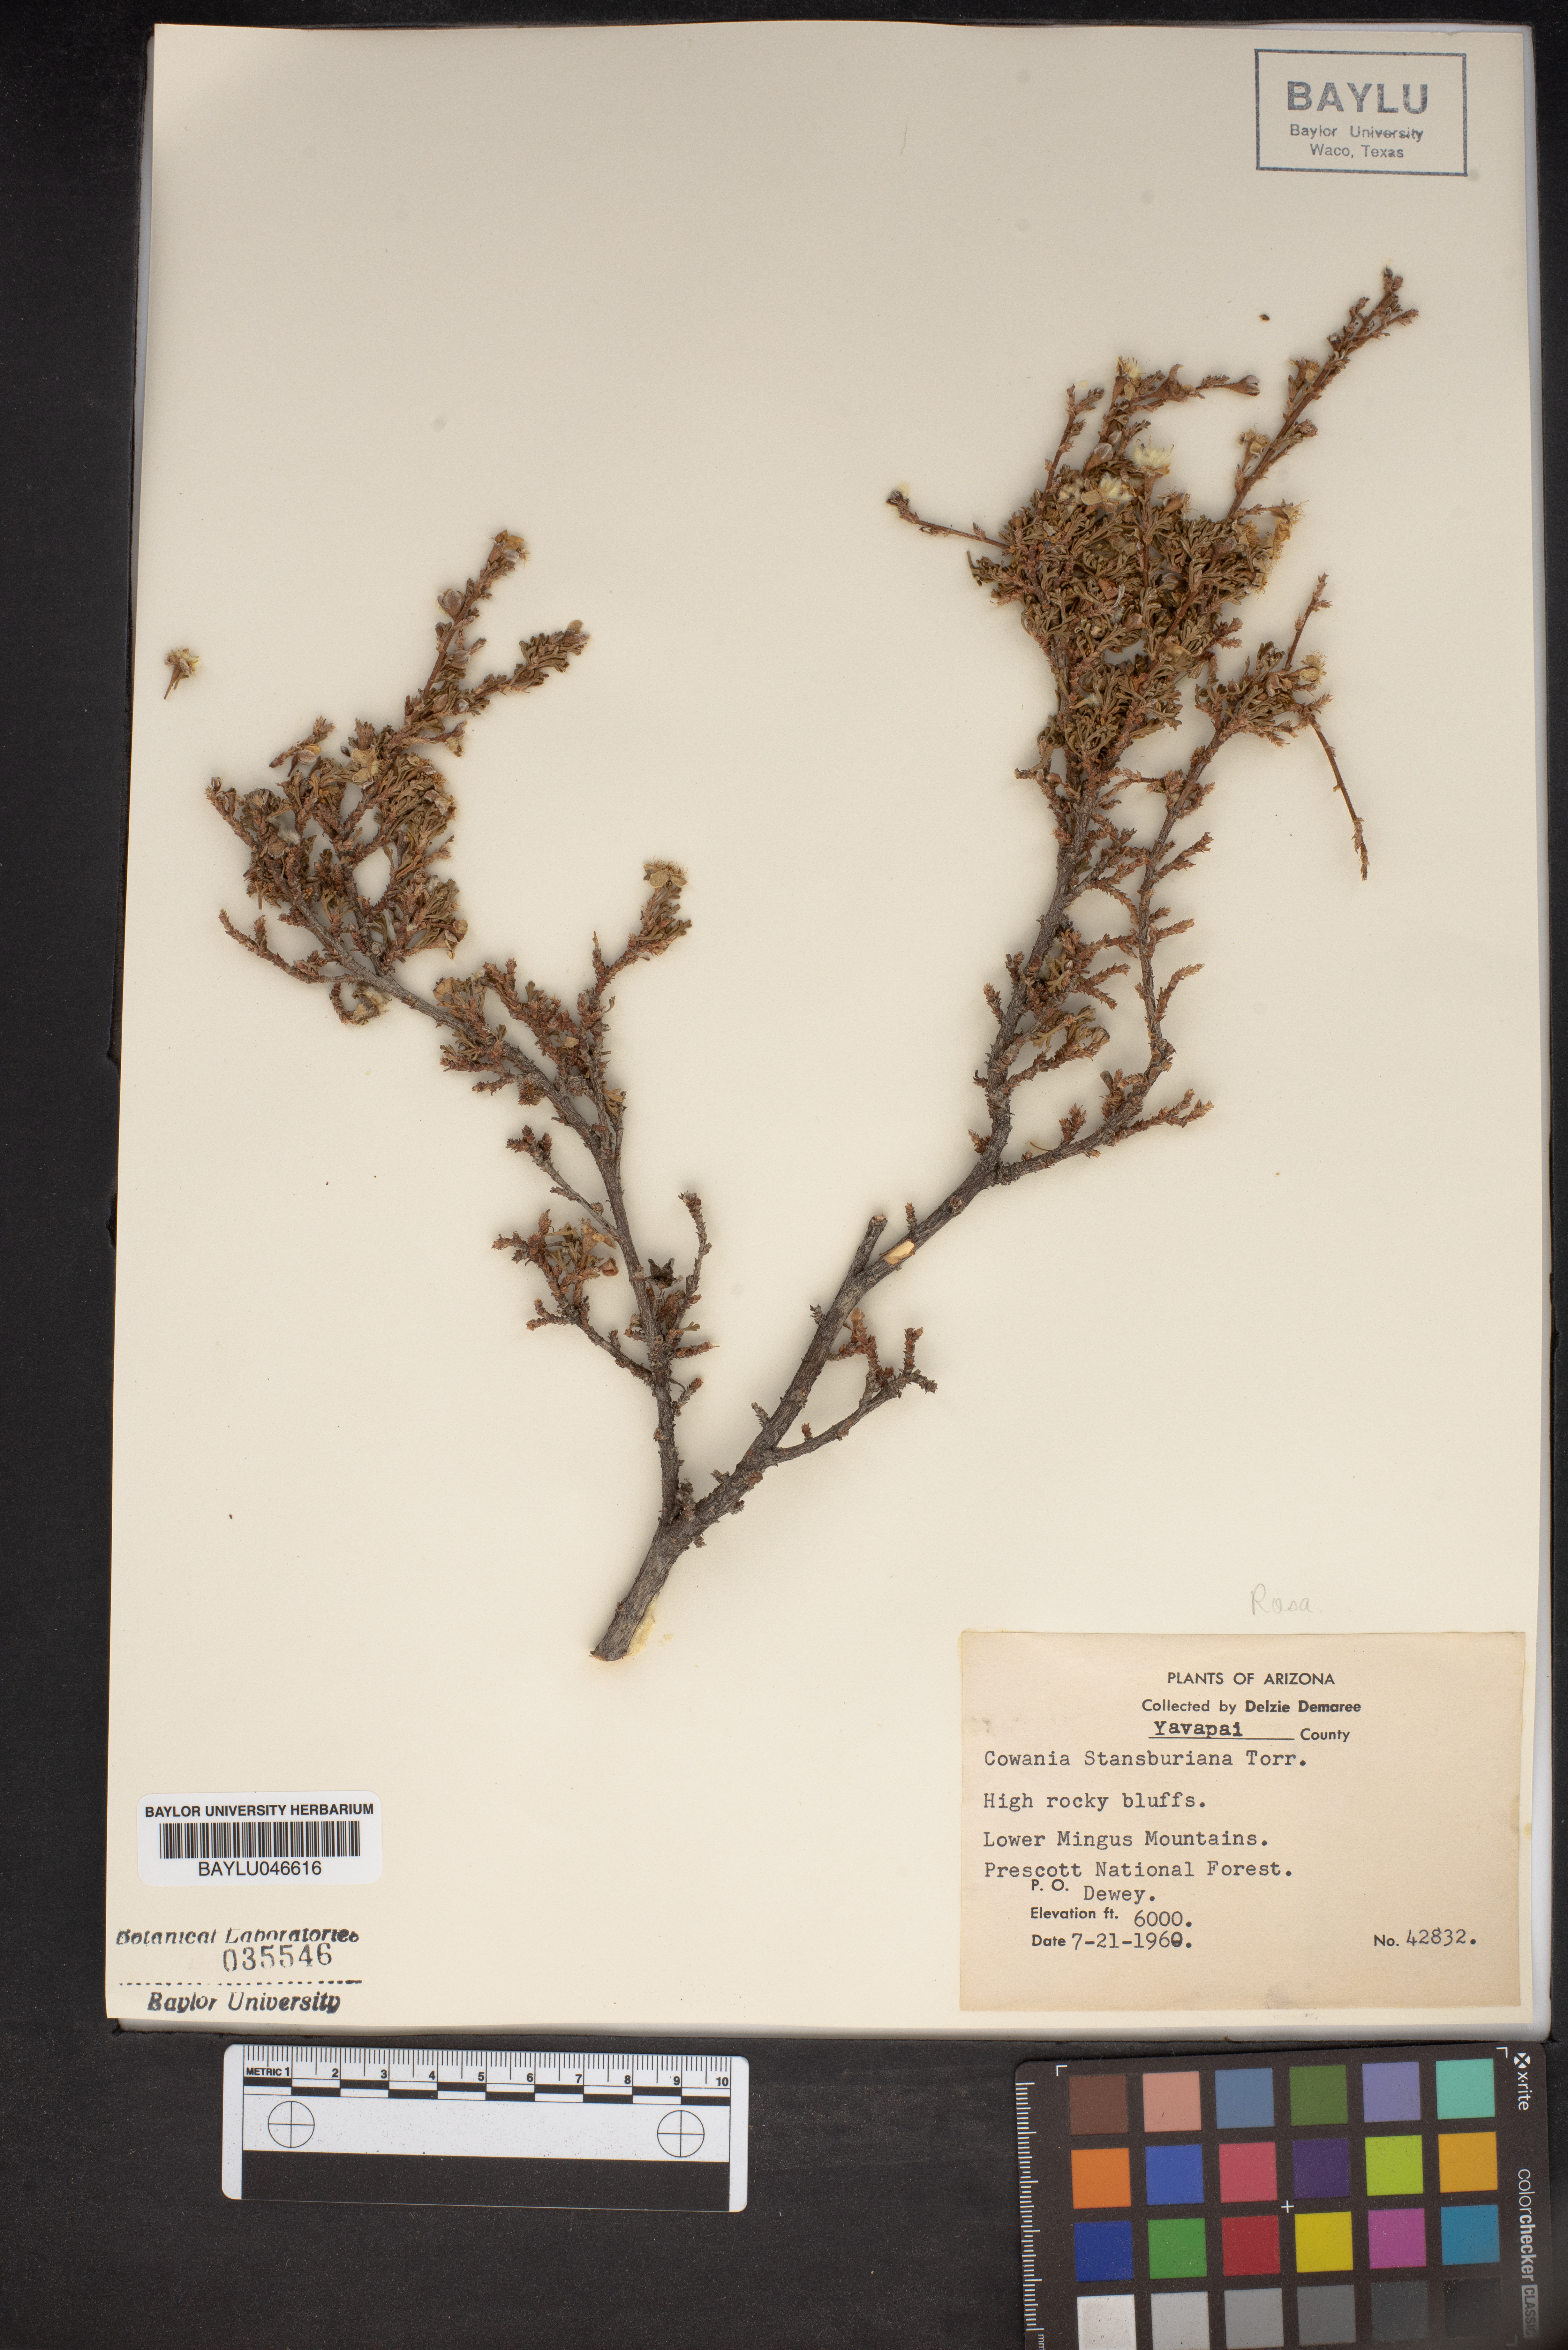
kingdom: Plantae
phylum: Tracheophyta
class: Magnoliopsida
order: Rosales
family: Rosaceae
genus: Purshia
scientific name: Purshia stansburiana
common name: Stansbury's cliffrose
